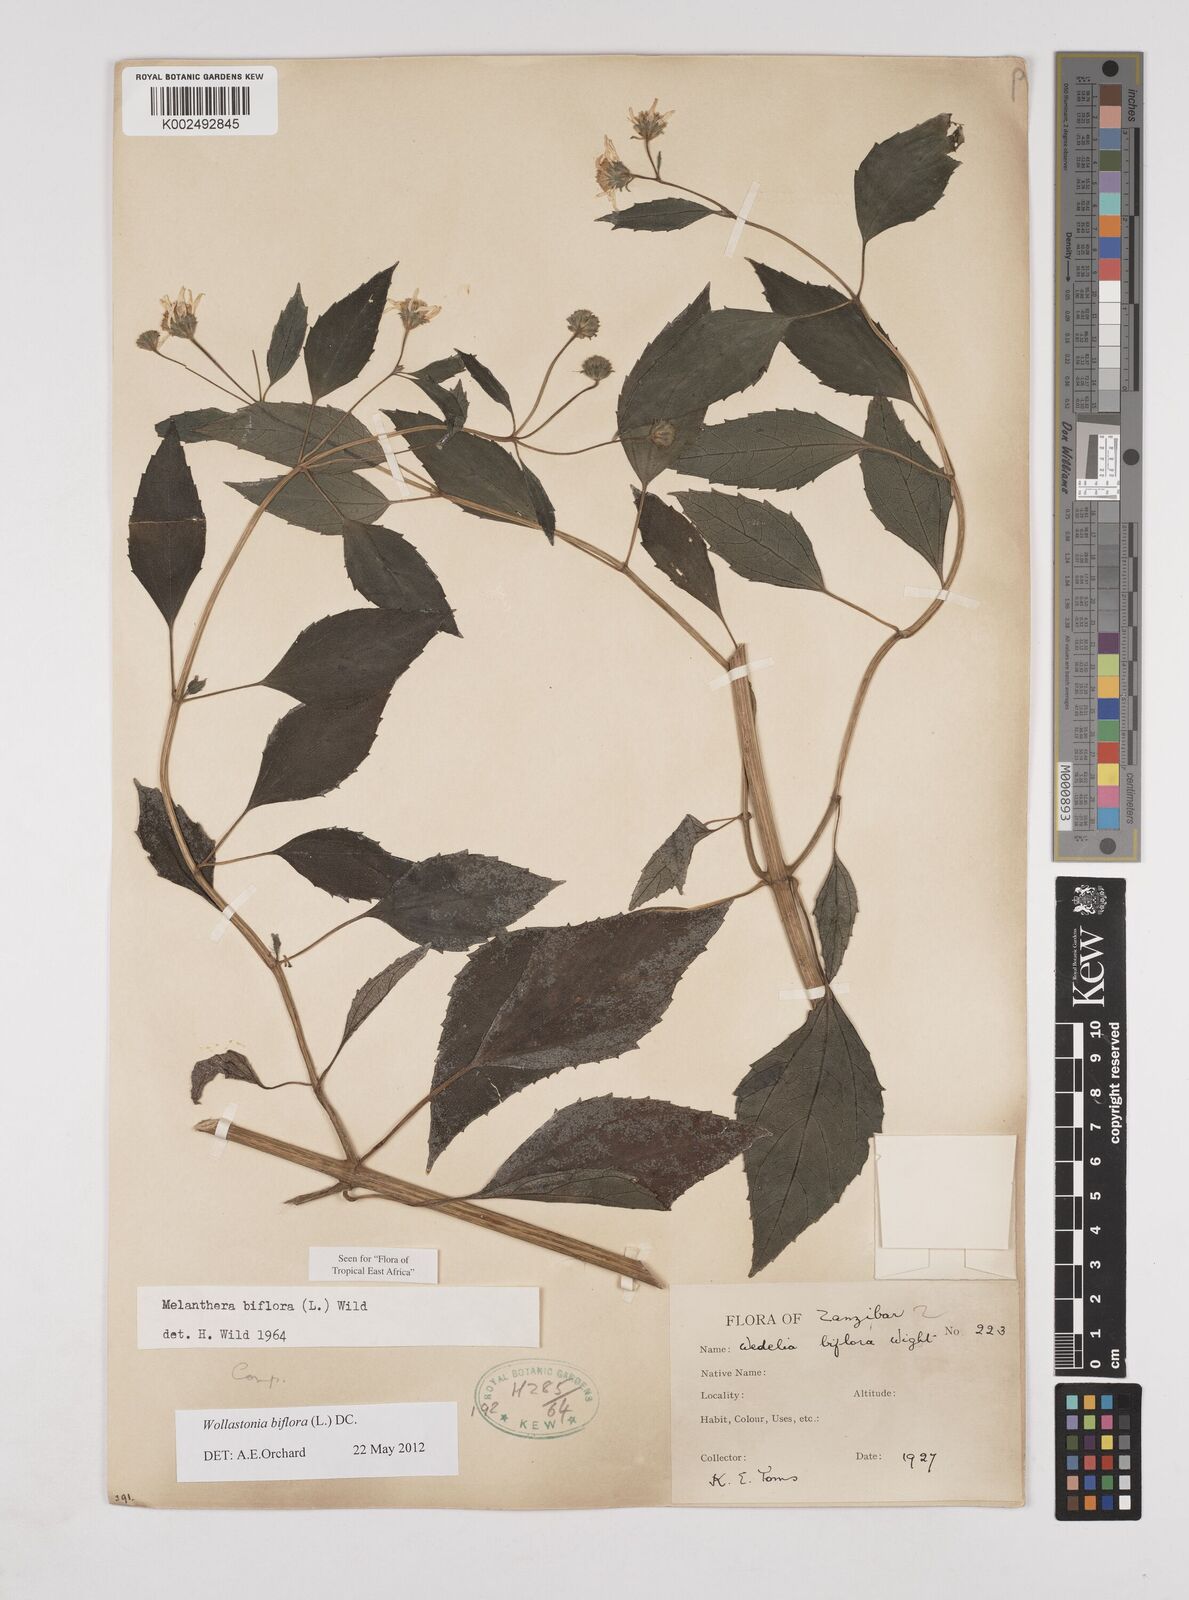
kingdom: Plantae
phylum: Tracheophyta
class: Magnoliopsida
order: Asterales
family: Asteraceae
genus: Wollastonia
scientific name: Wollastonia biflora
